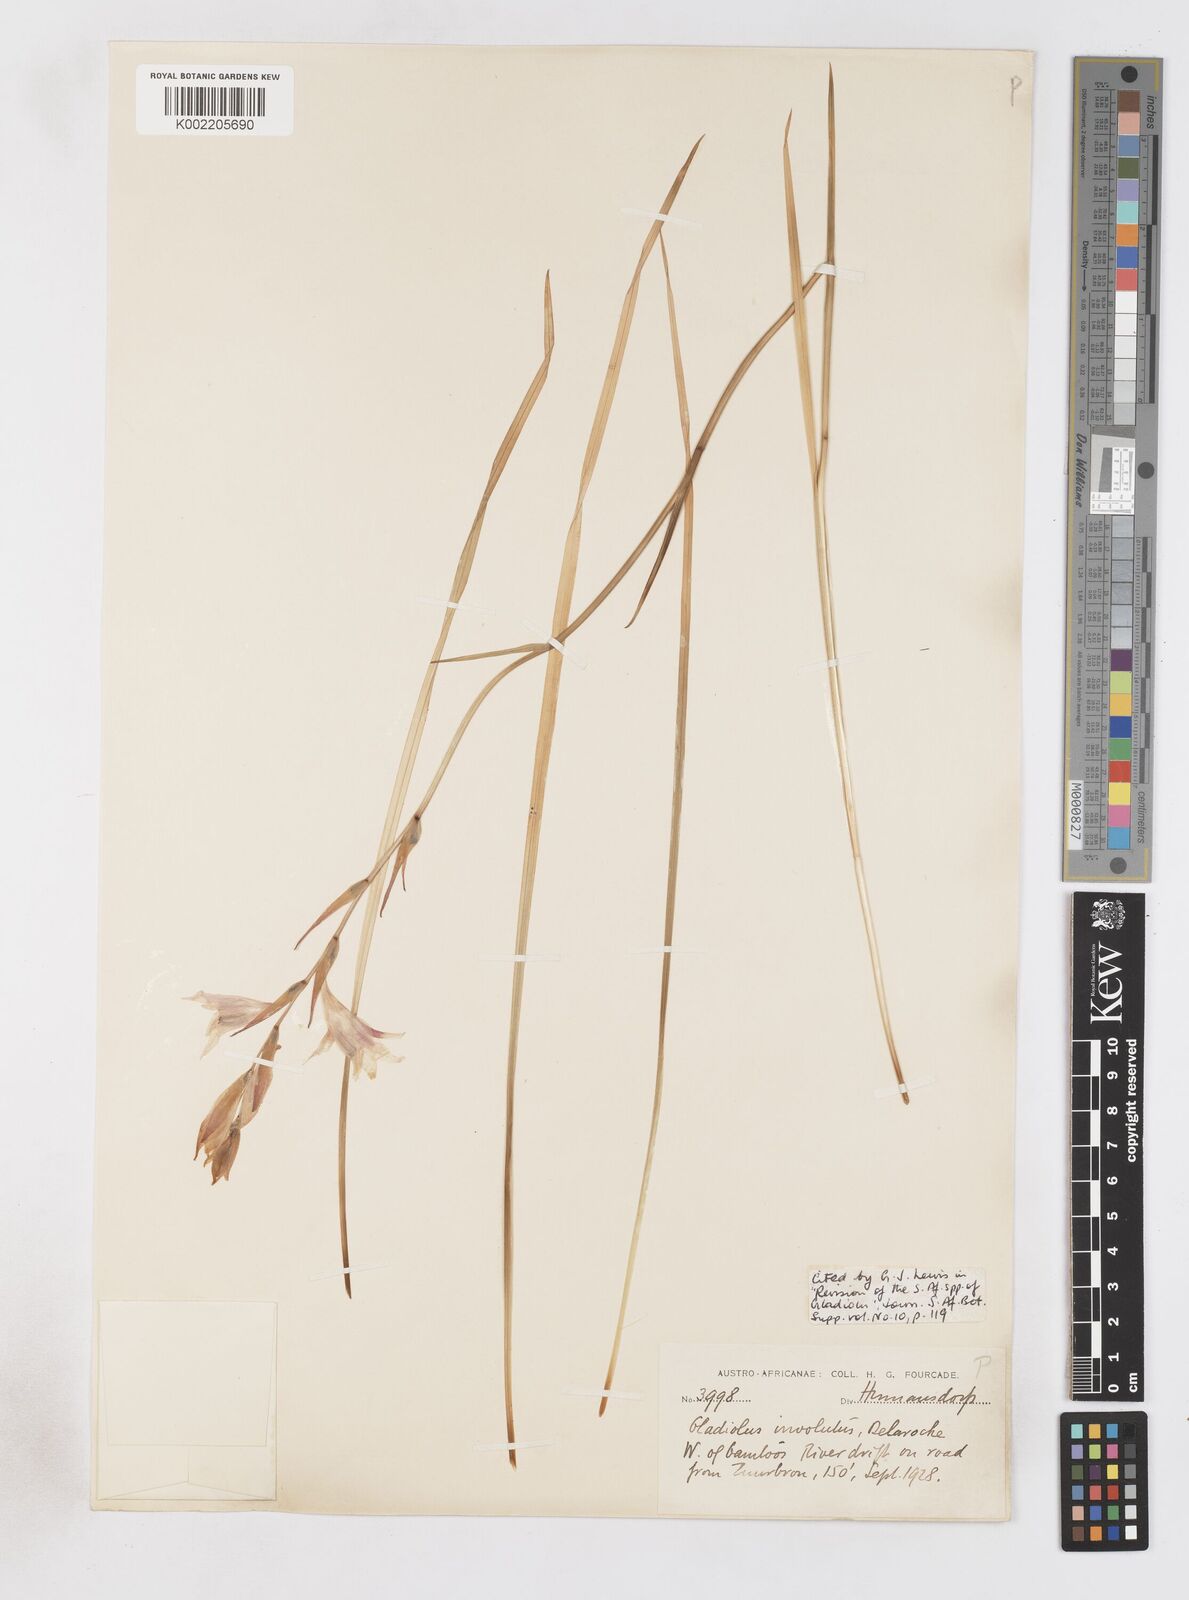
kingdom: Plantae
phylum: Tracheophyta
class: Liliopsida
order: Asparagales
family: Iridaceae
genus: Gladiolus
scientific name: Gladiolus involutus
